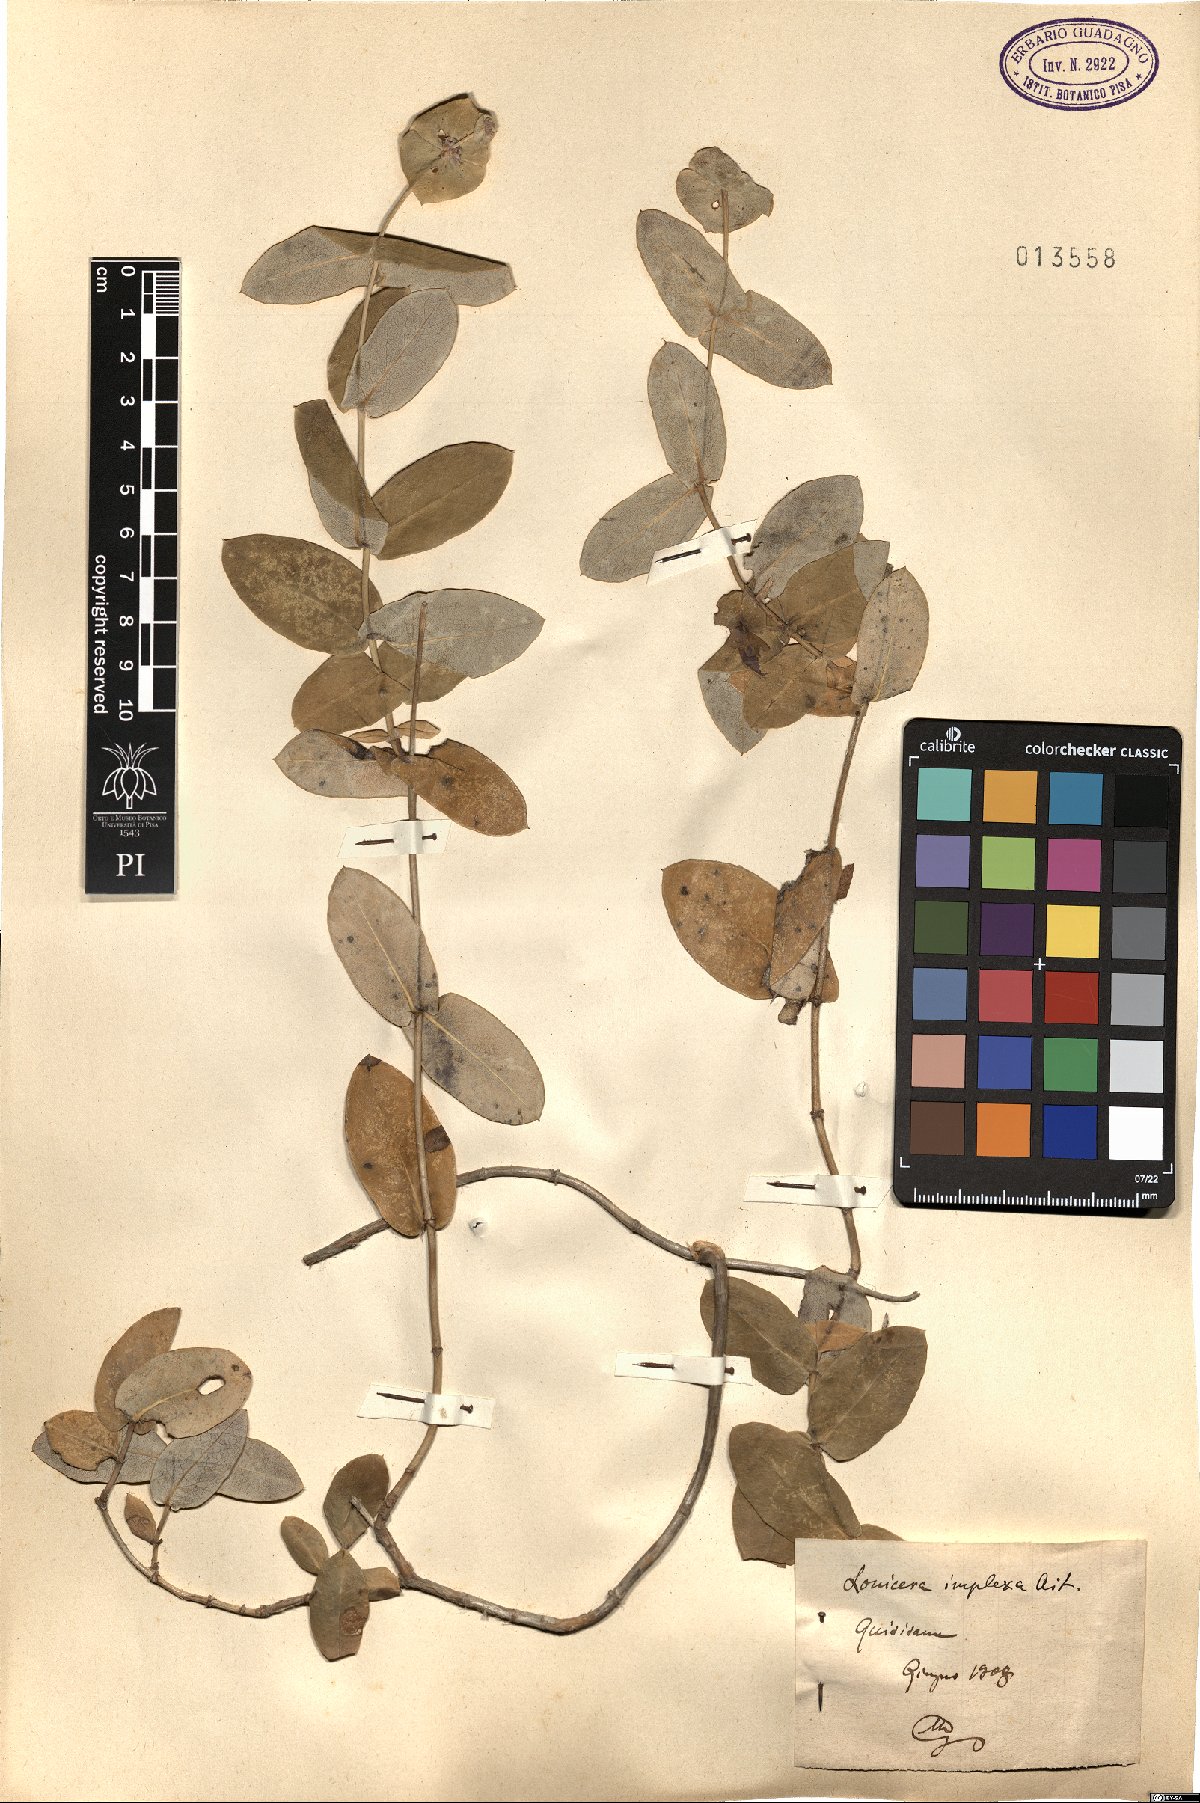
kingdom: Plantae
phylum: Tracheophyta
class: Magnoliopsida
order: Dipsacales
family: Caprifoliaceae
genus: Lonicera
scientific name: Lonicera implexa
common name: Minorca honeysuckle
